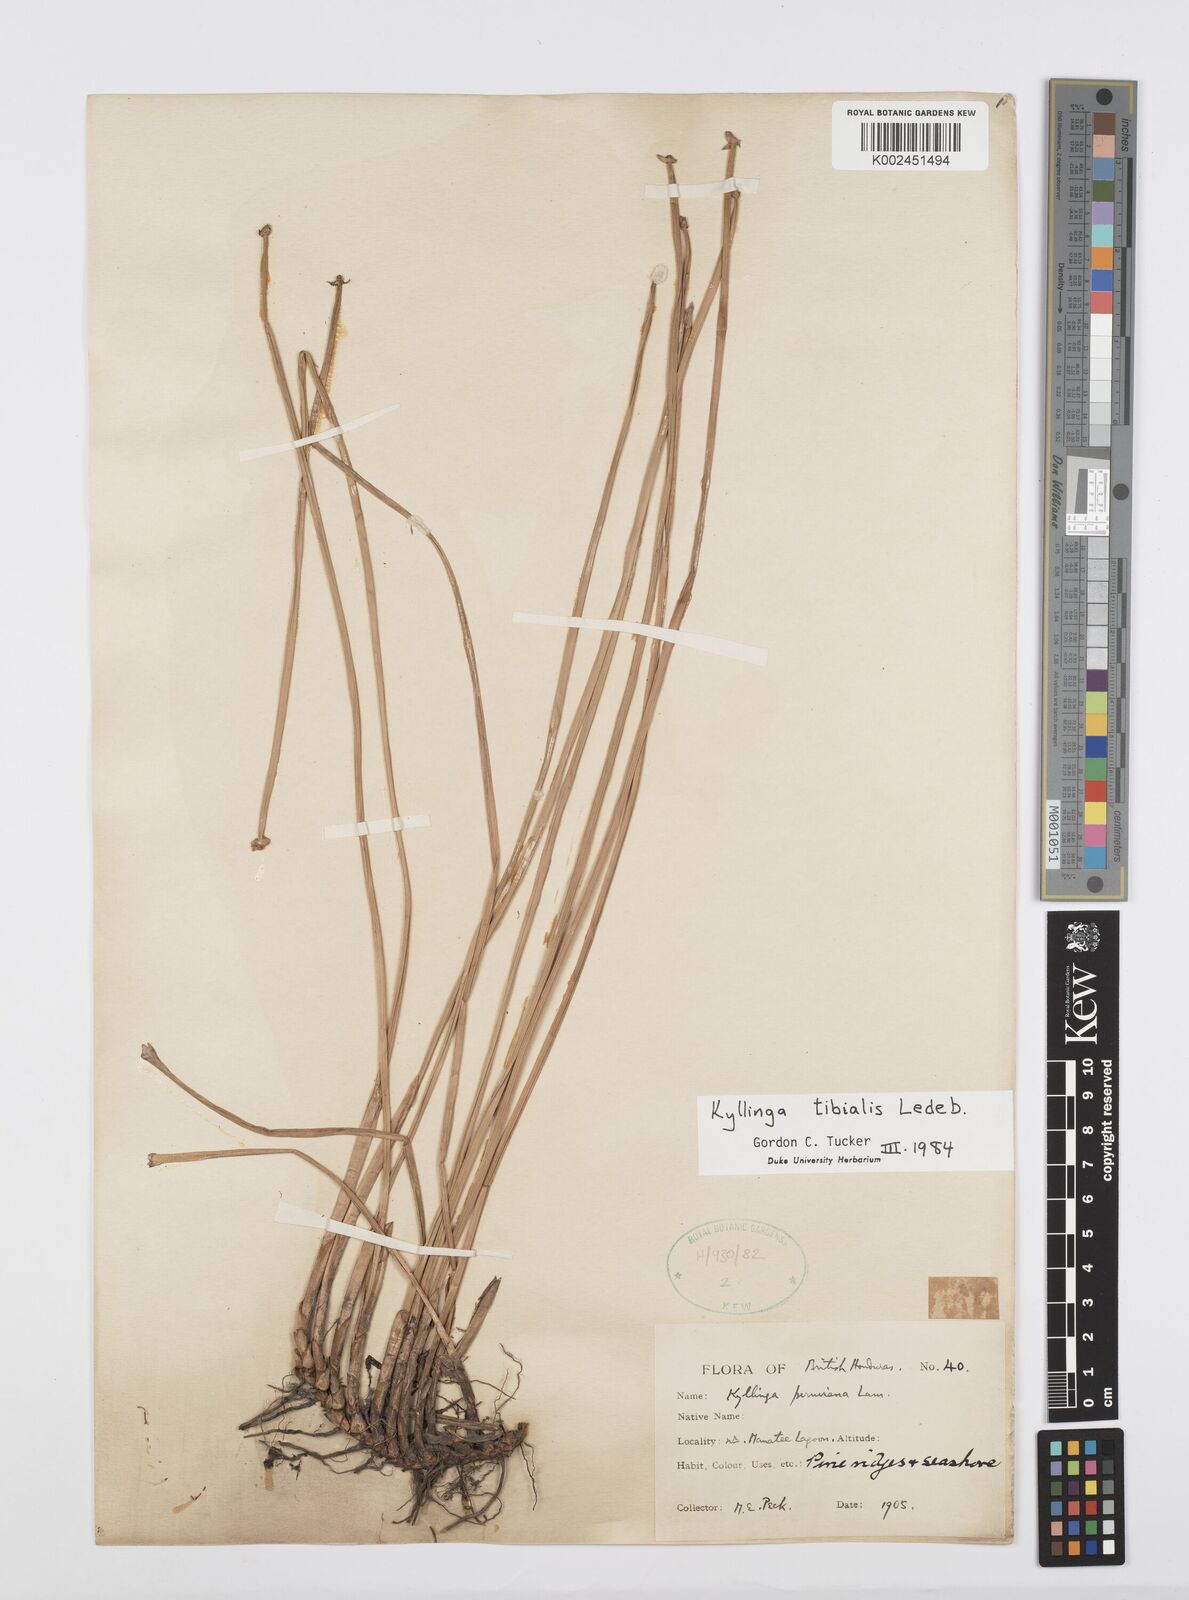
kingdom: Plantae
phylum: Tracheophyta
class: Liliopsida
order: Poales
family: Cyperaceae
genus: Cyperus
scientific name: Cyperus obtusatus
